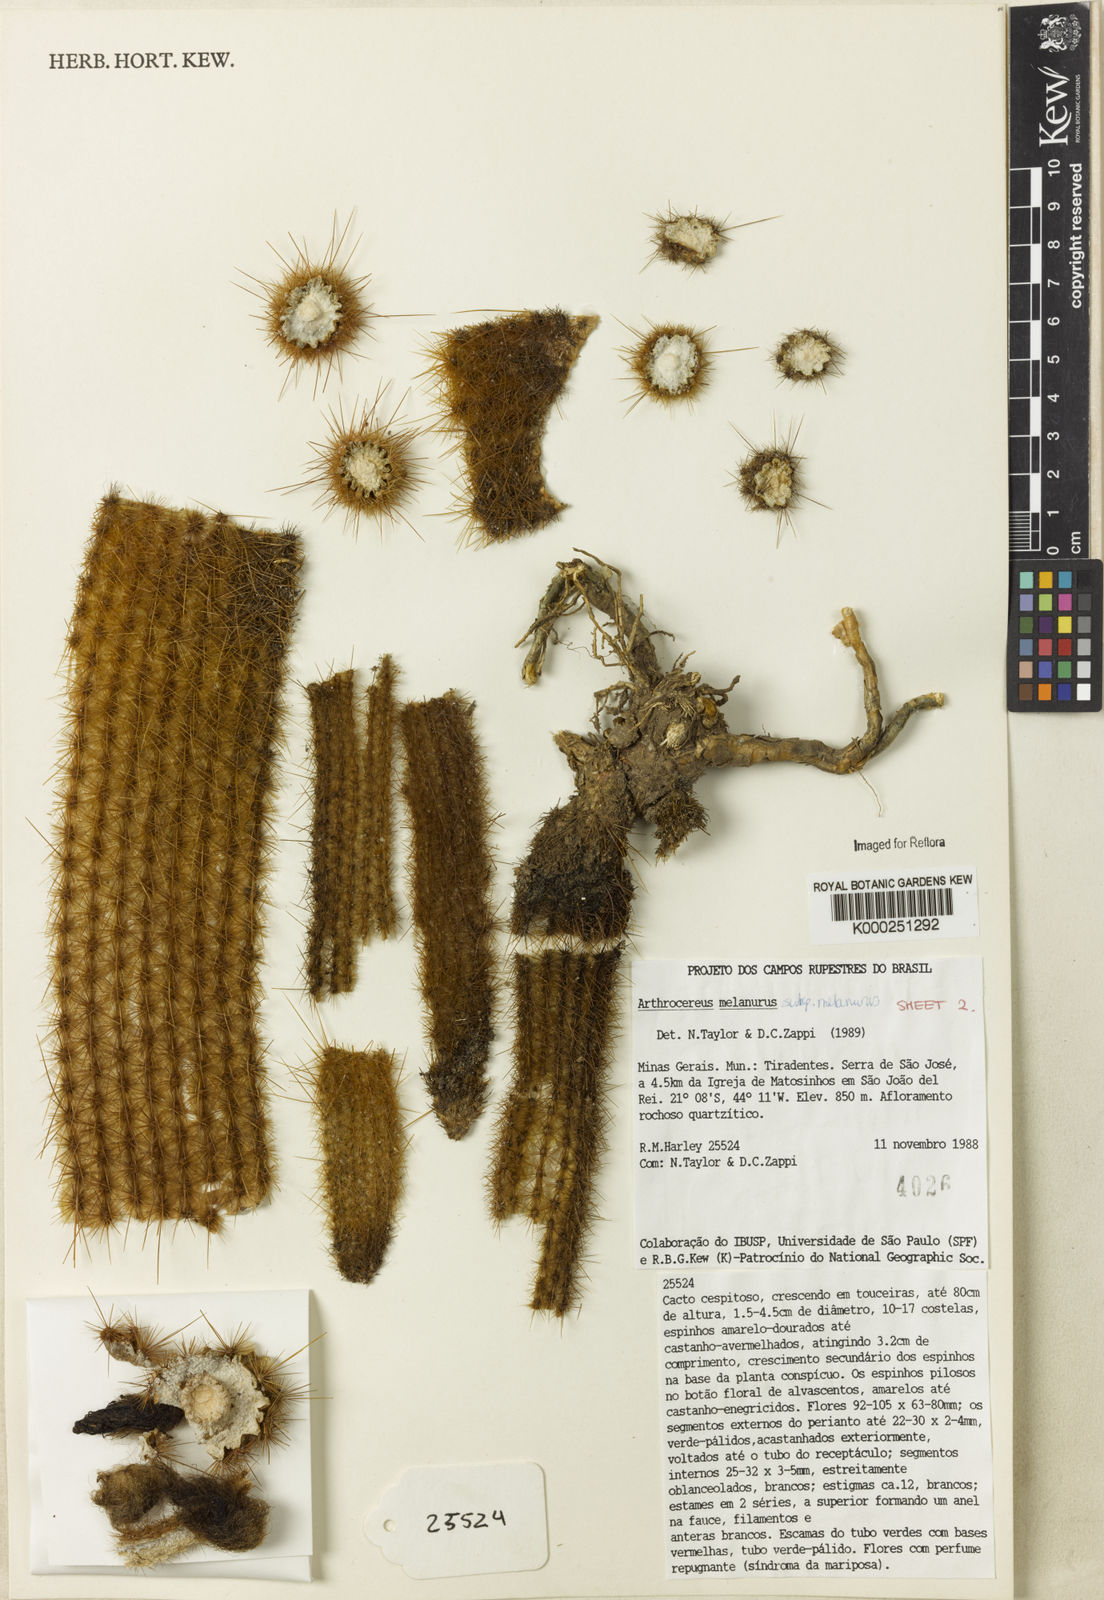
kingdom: Plantae
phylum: Tracheophyta
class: Magnoliopsida
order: Caryophyllales
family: Cactaceae
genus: Arthrocereus
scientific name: Arthrocereus
